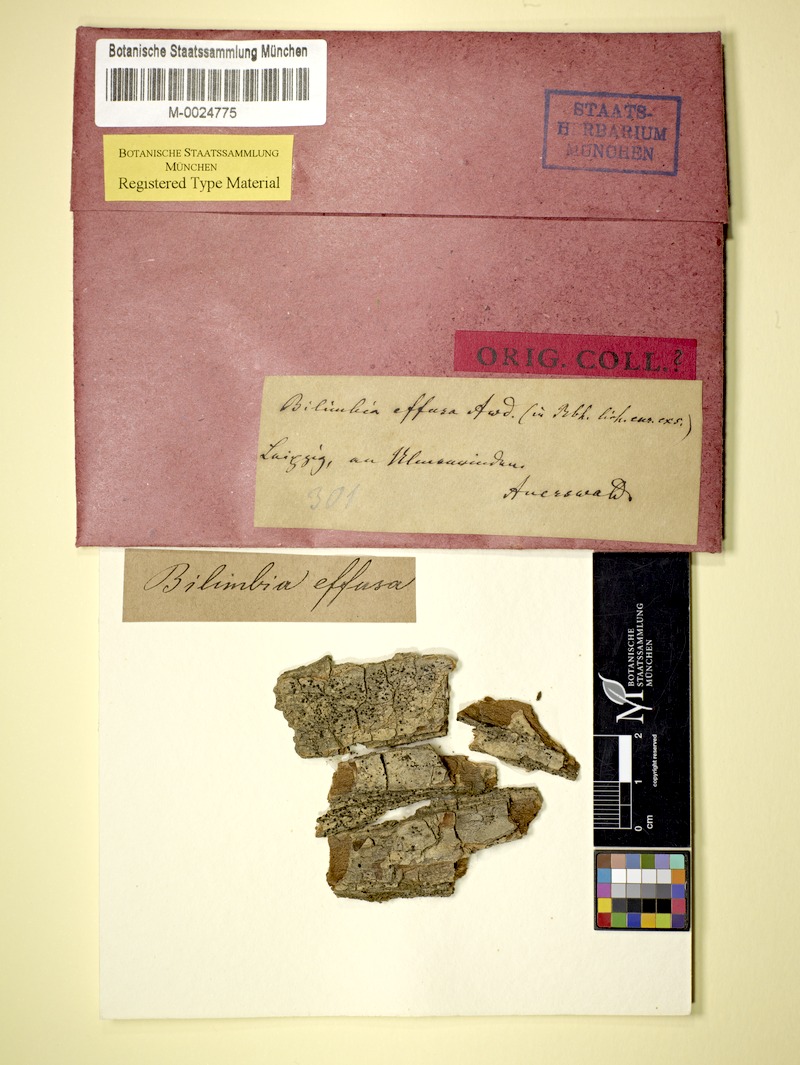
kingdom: Fungi
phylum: Ascomycota
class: Lecanoromycetes
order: Lecanorales
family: Byssolomataceae
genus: Scutula
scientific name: Scutula effusa
